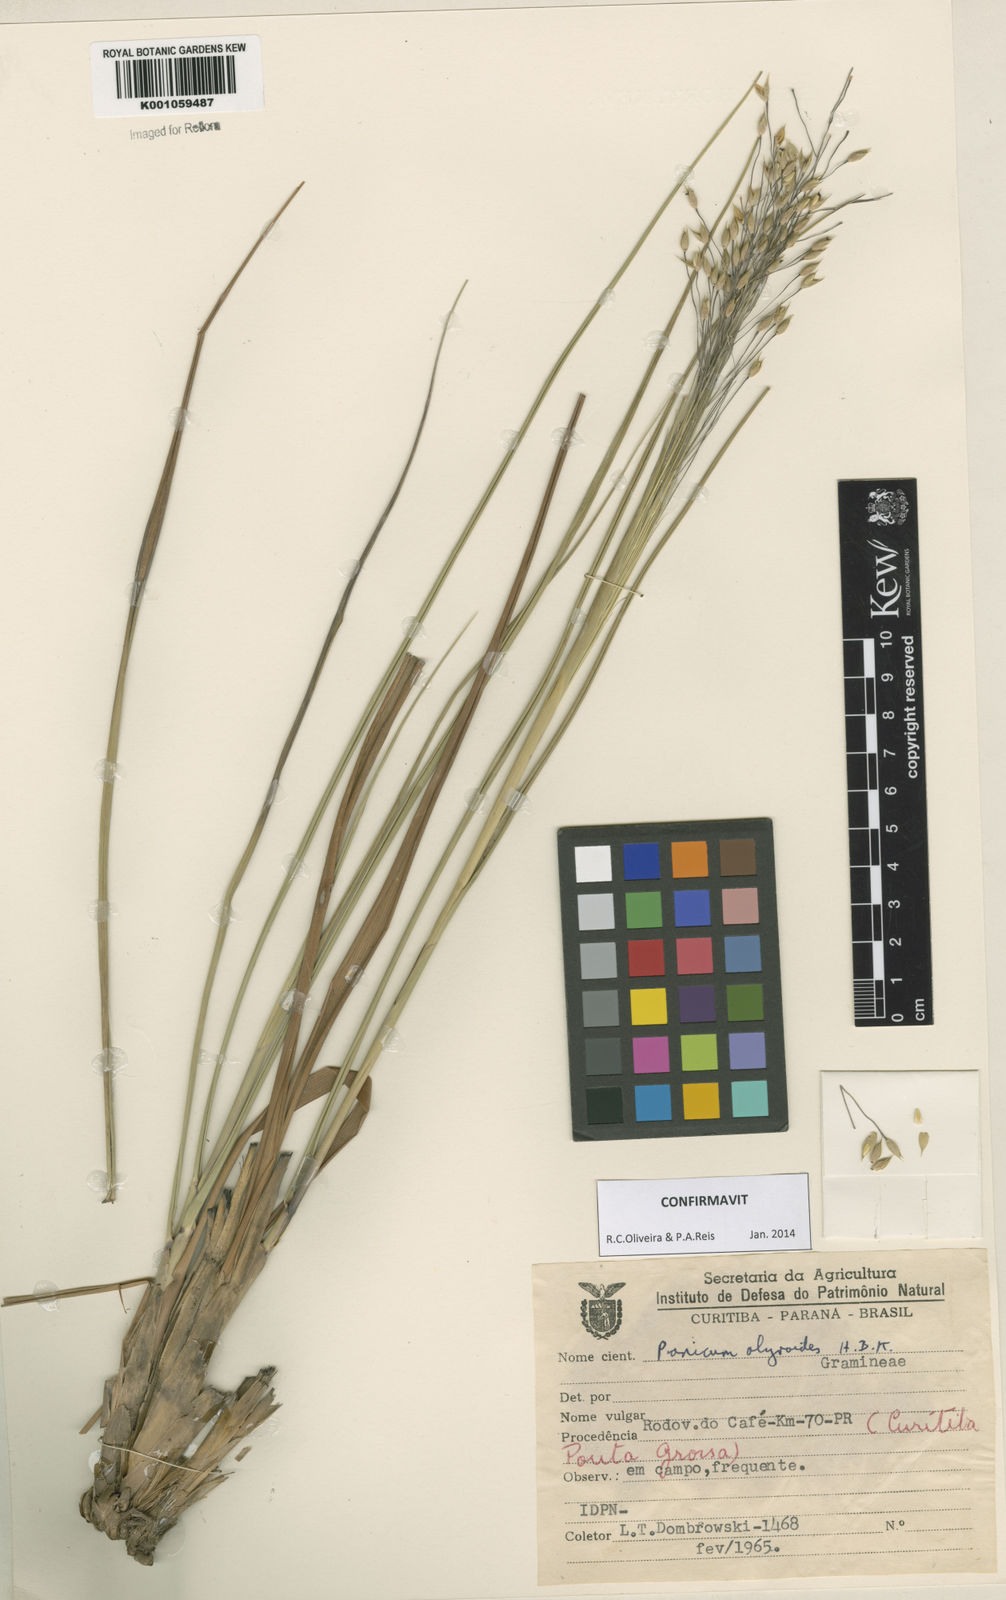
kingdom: Plantae
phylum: Tracheophyta
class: Liliopsida
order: Poales
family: Poaceae
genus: Panicum
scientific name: Panicum olyroides
